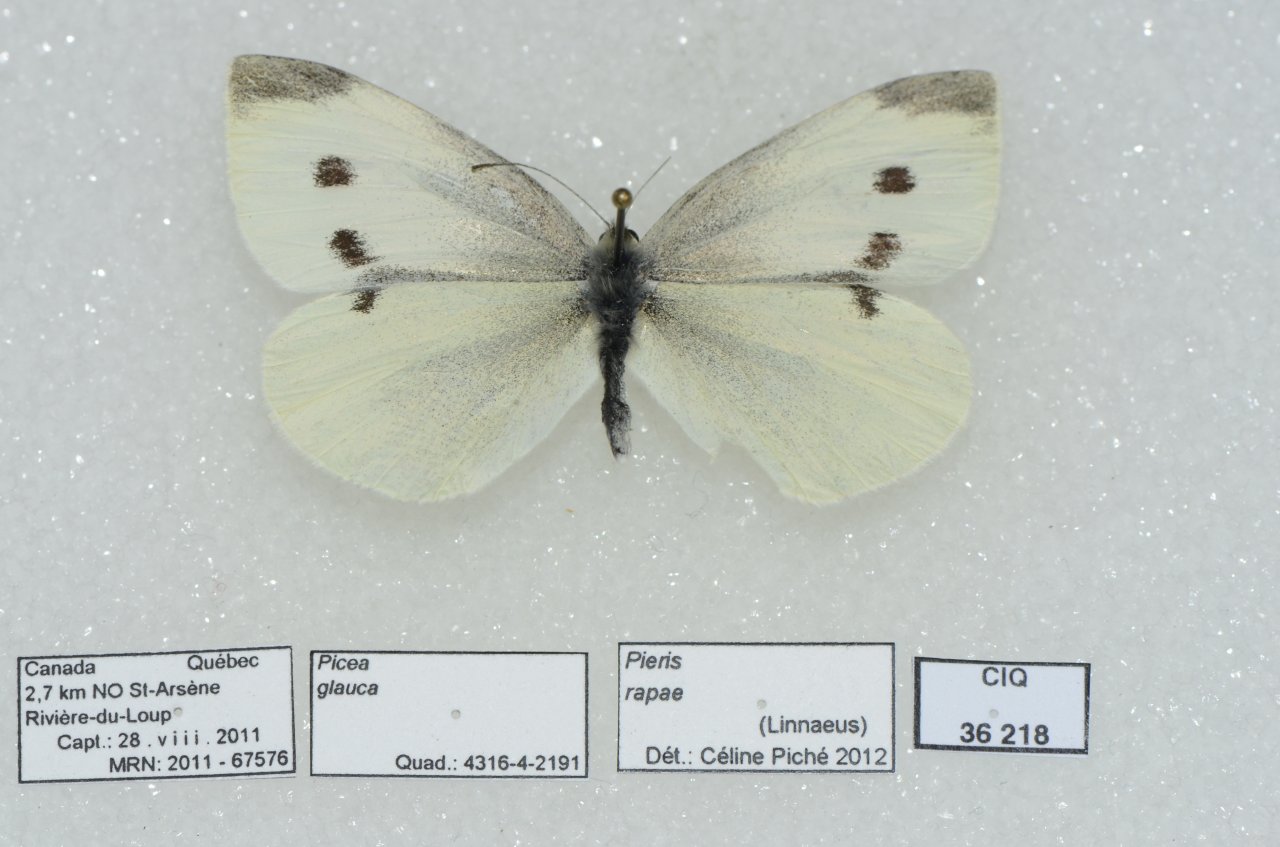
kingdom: Animalia
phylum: Arthropoda
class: Insecta
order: Lepidoptera
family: Pieridae
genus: Pieris
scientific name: Pieris rapae
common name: Cabbage White
